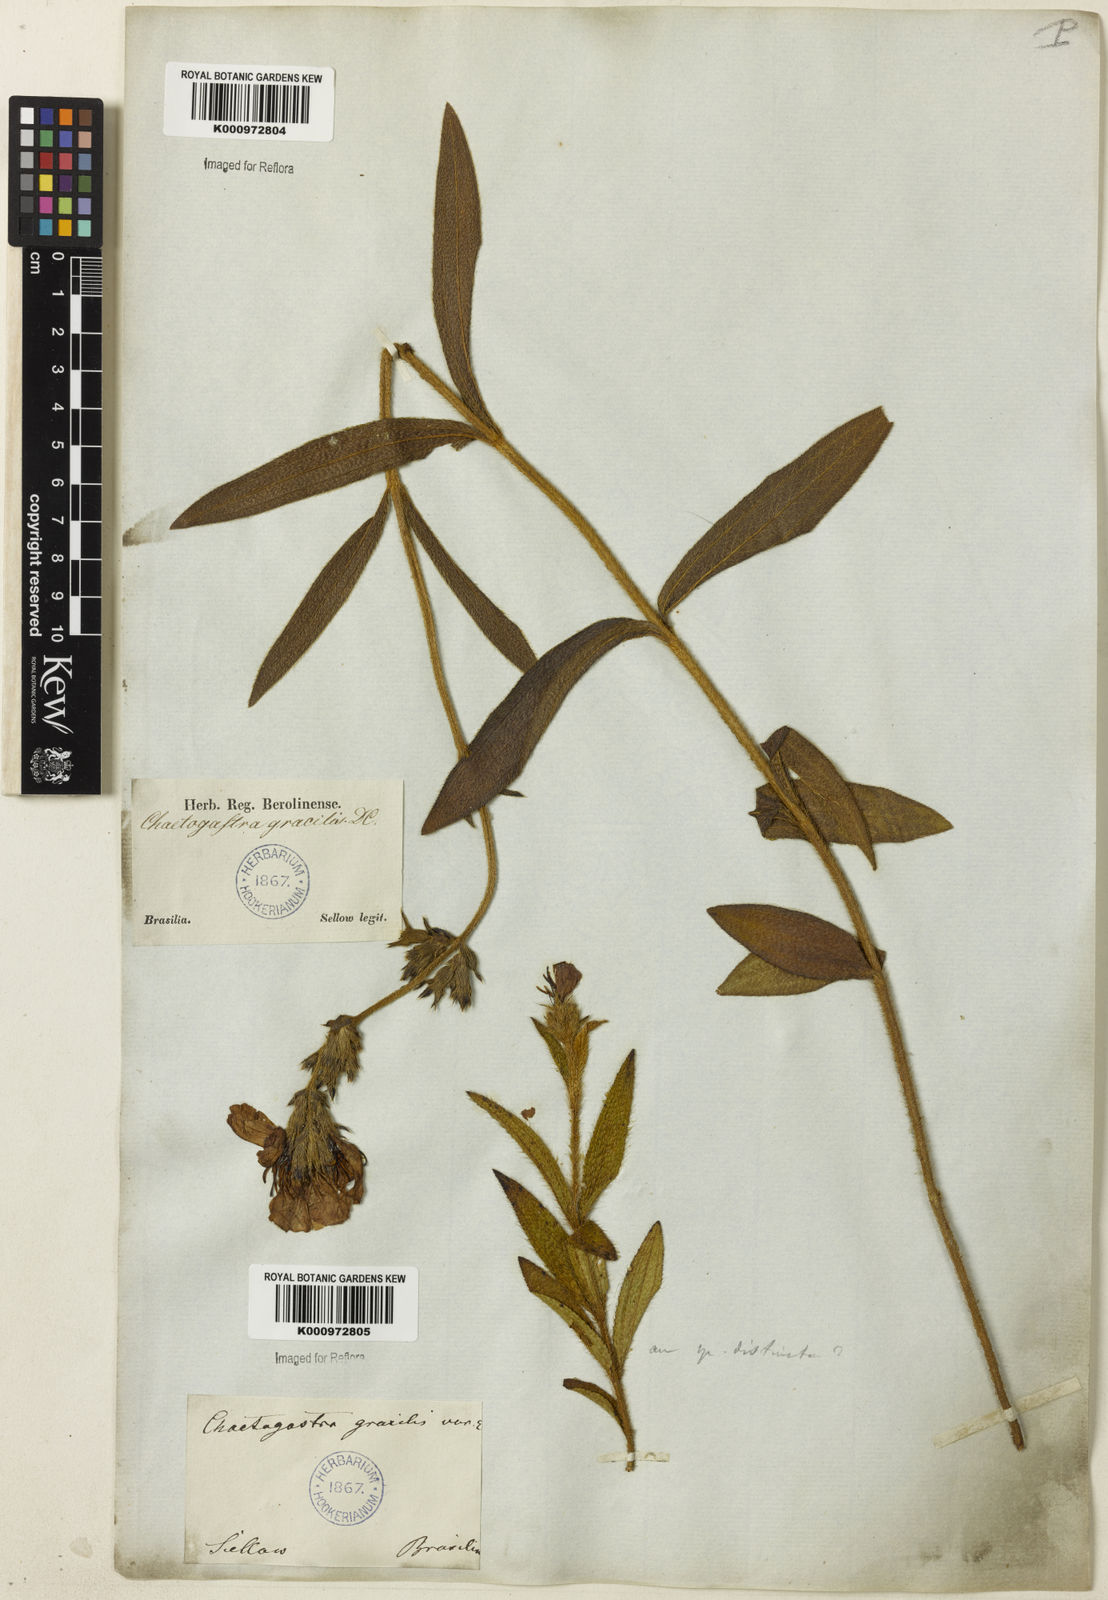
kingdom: Plantae
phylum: Tracheophyta
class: Magnoliopsida
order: Myrtales
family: Melastomataceae
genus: Chaetogastra
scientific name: Chaetogastra gracilis
